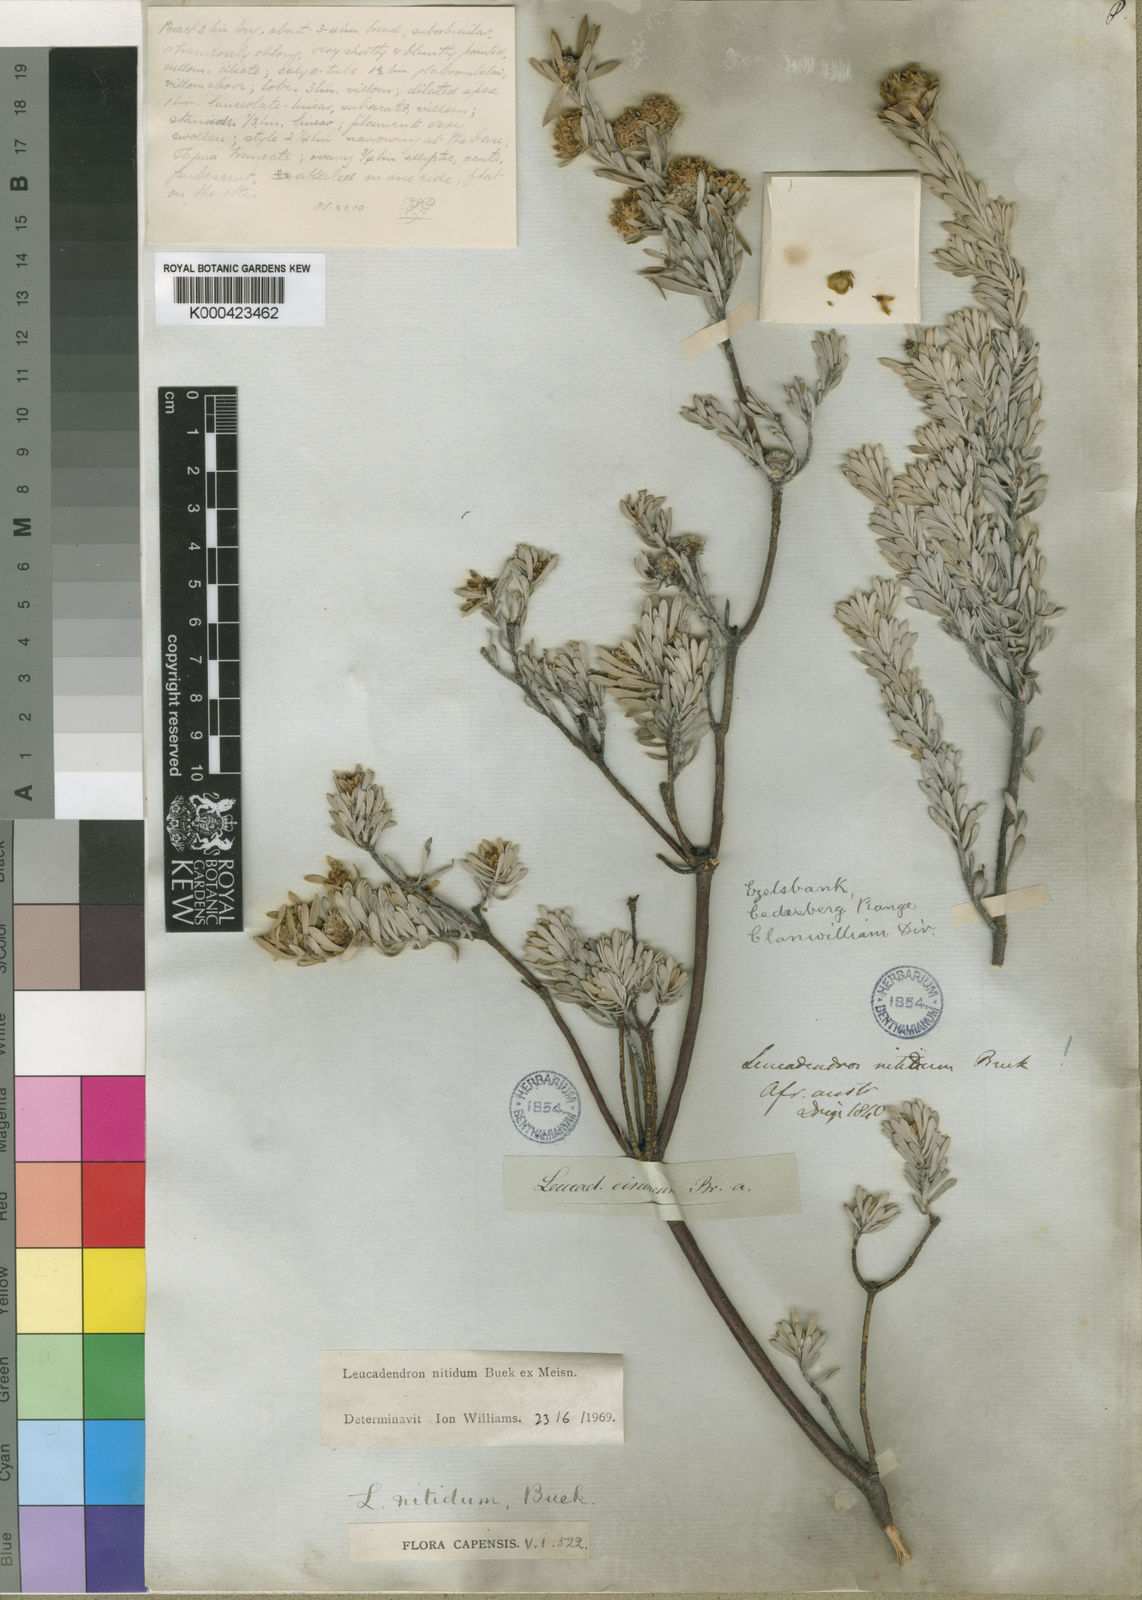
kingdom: Plantae
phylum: Tracheophyta
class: Magnoliopsida
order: Proteales
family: Proteaceae
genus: Leucadendron
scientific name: Leucadendron nitidum
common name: Bokkeveld conebush
